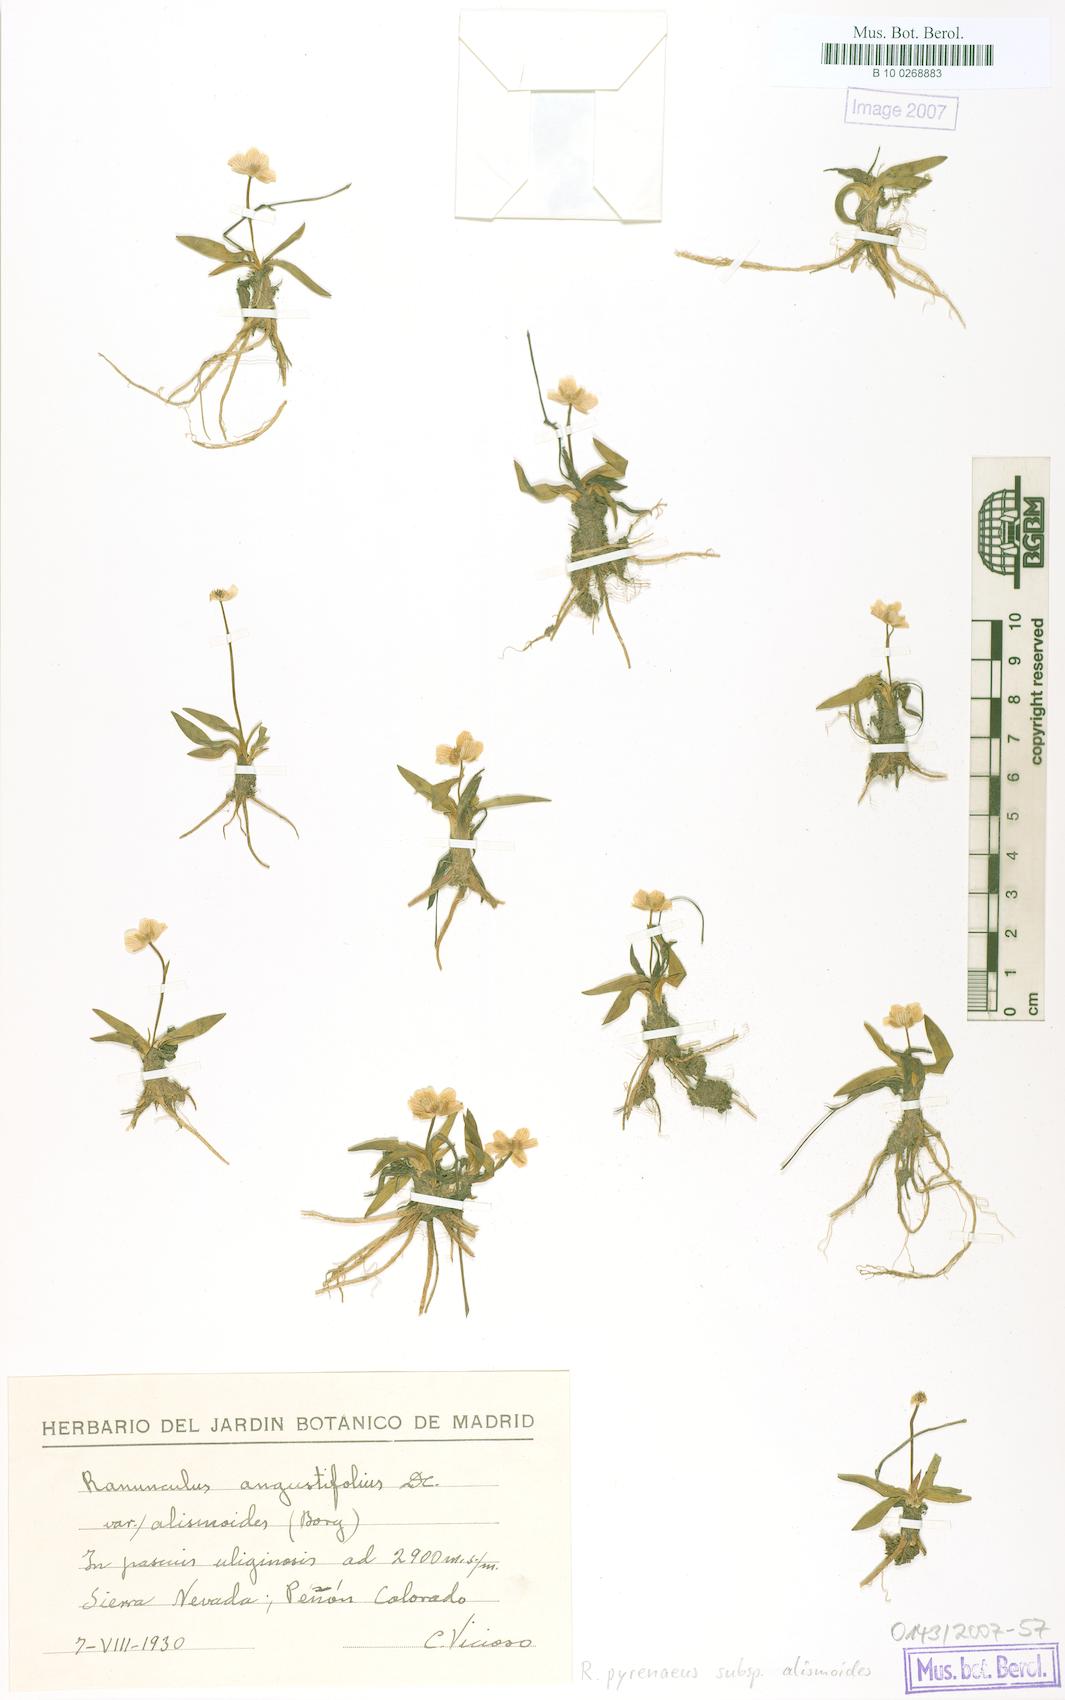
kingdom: Plantae
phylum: Tracheophyta
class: Magnoliopsida
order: Ranunculales
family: Ranunculaceae
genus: Ranunculus
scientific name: Ranunculus angustifolius
